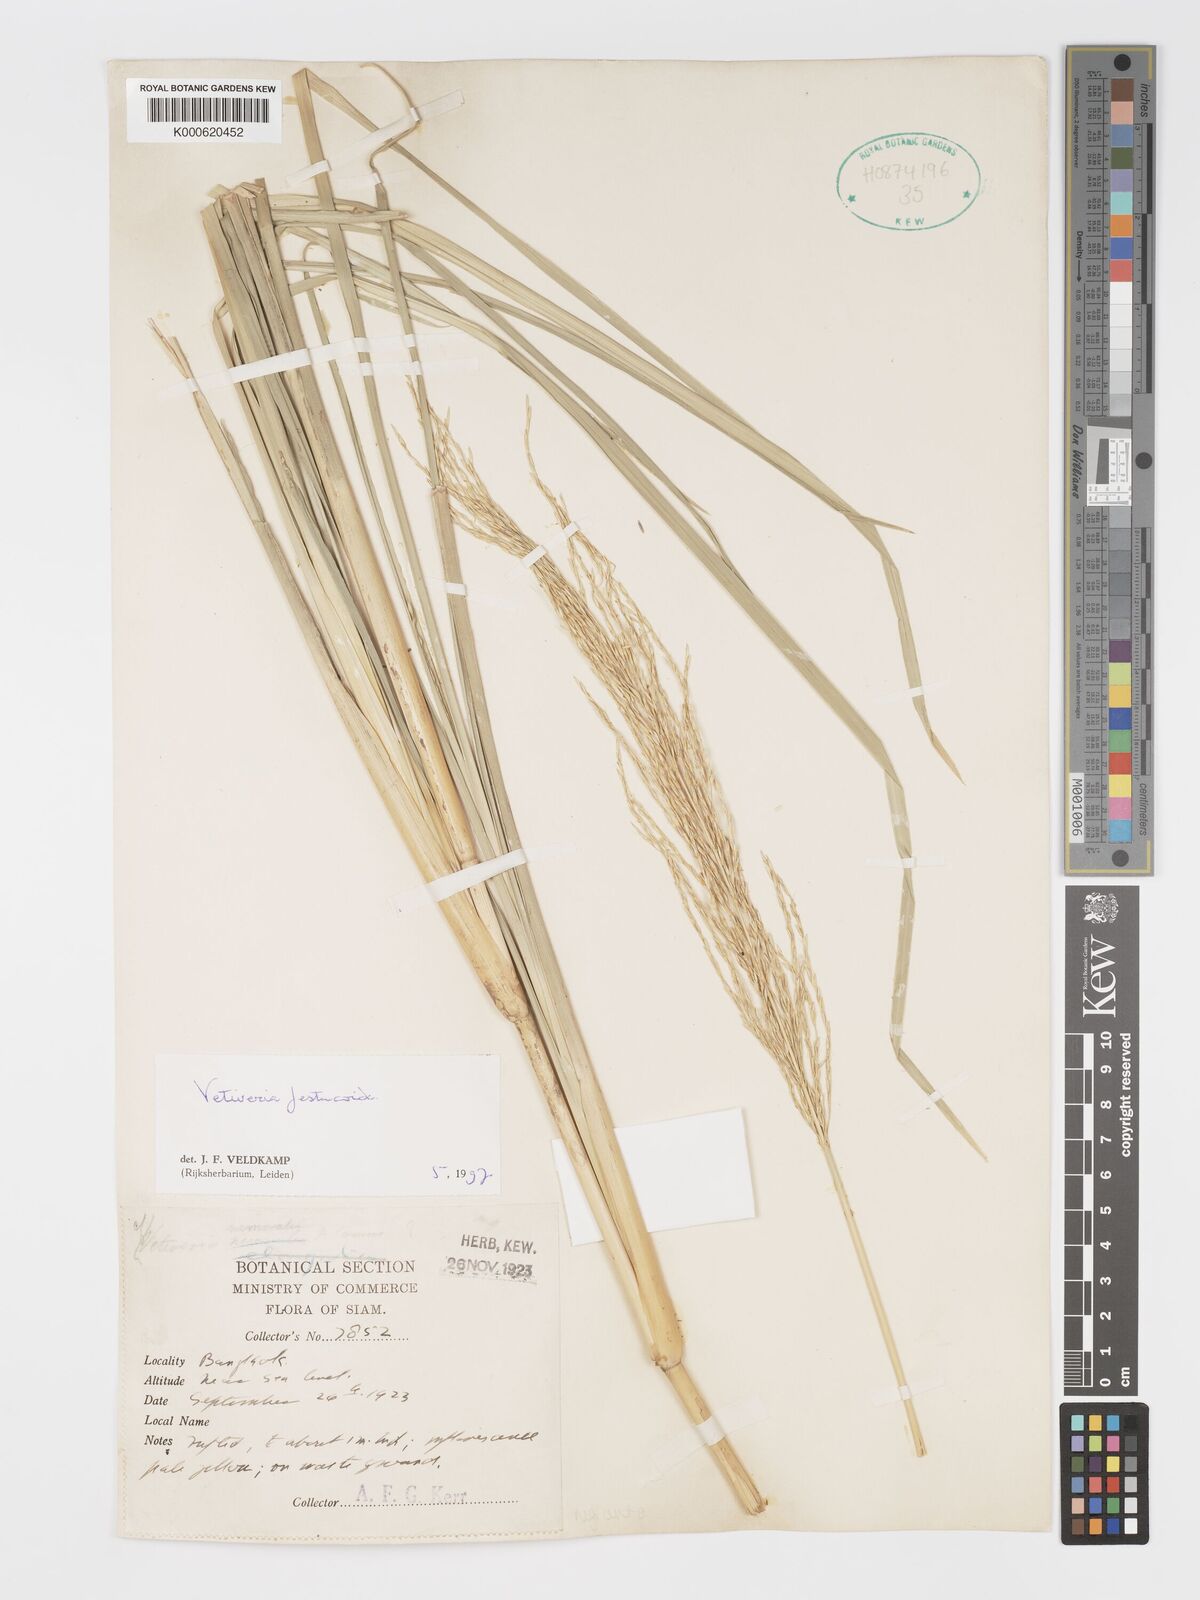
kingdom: Plantae
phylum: Tracheophyta
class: Liliopsida
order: Poales
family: Poaceae
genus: Chrysopogon
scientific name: Chrysopogon festucoides
